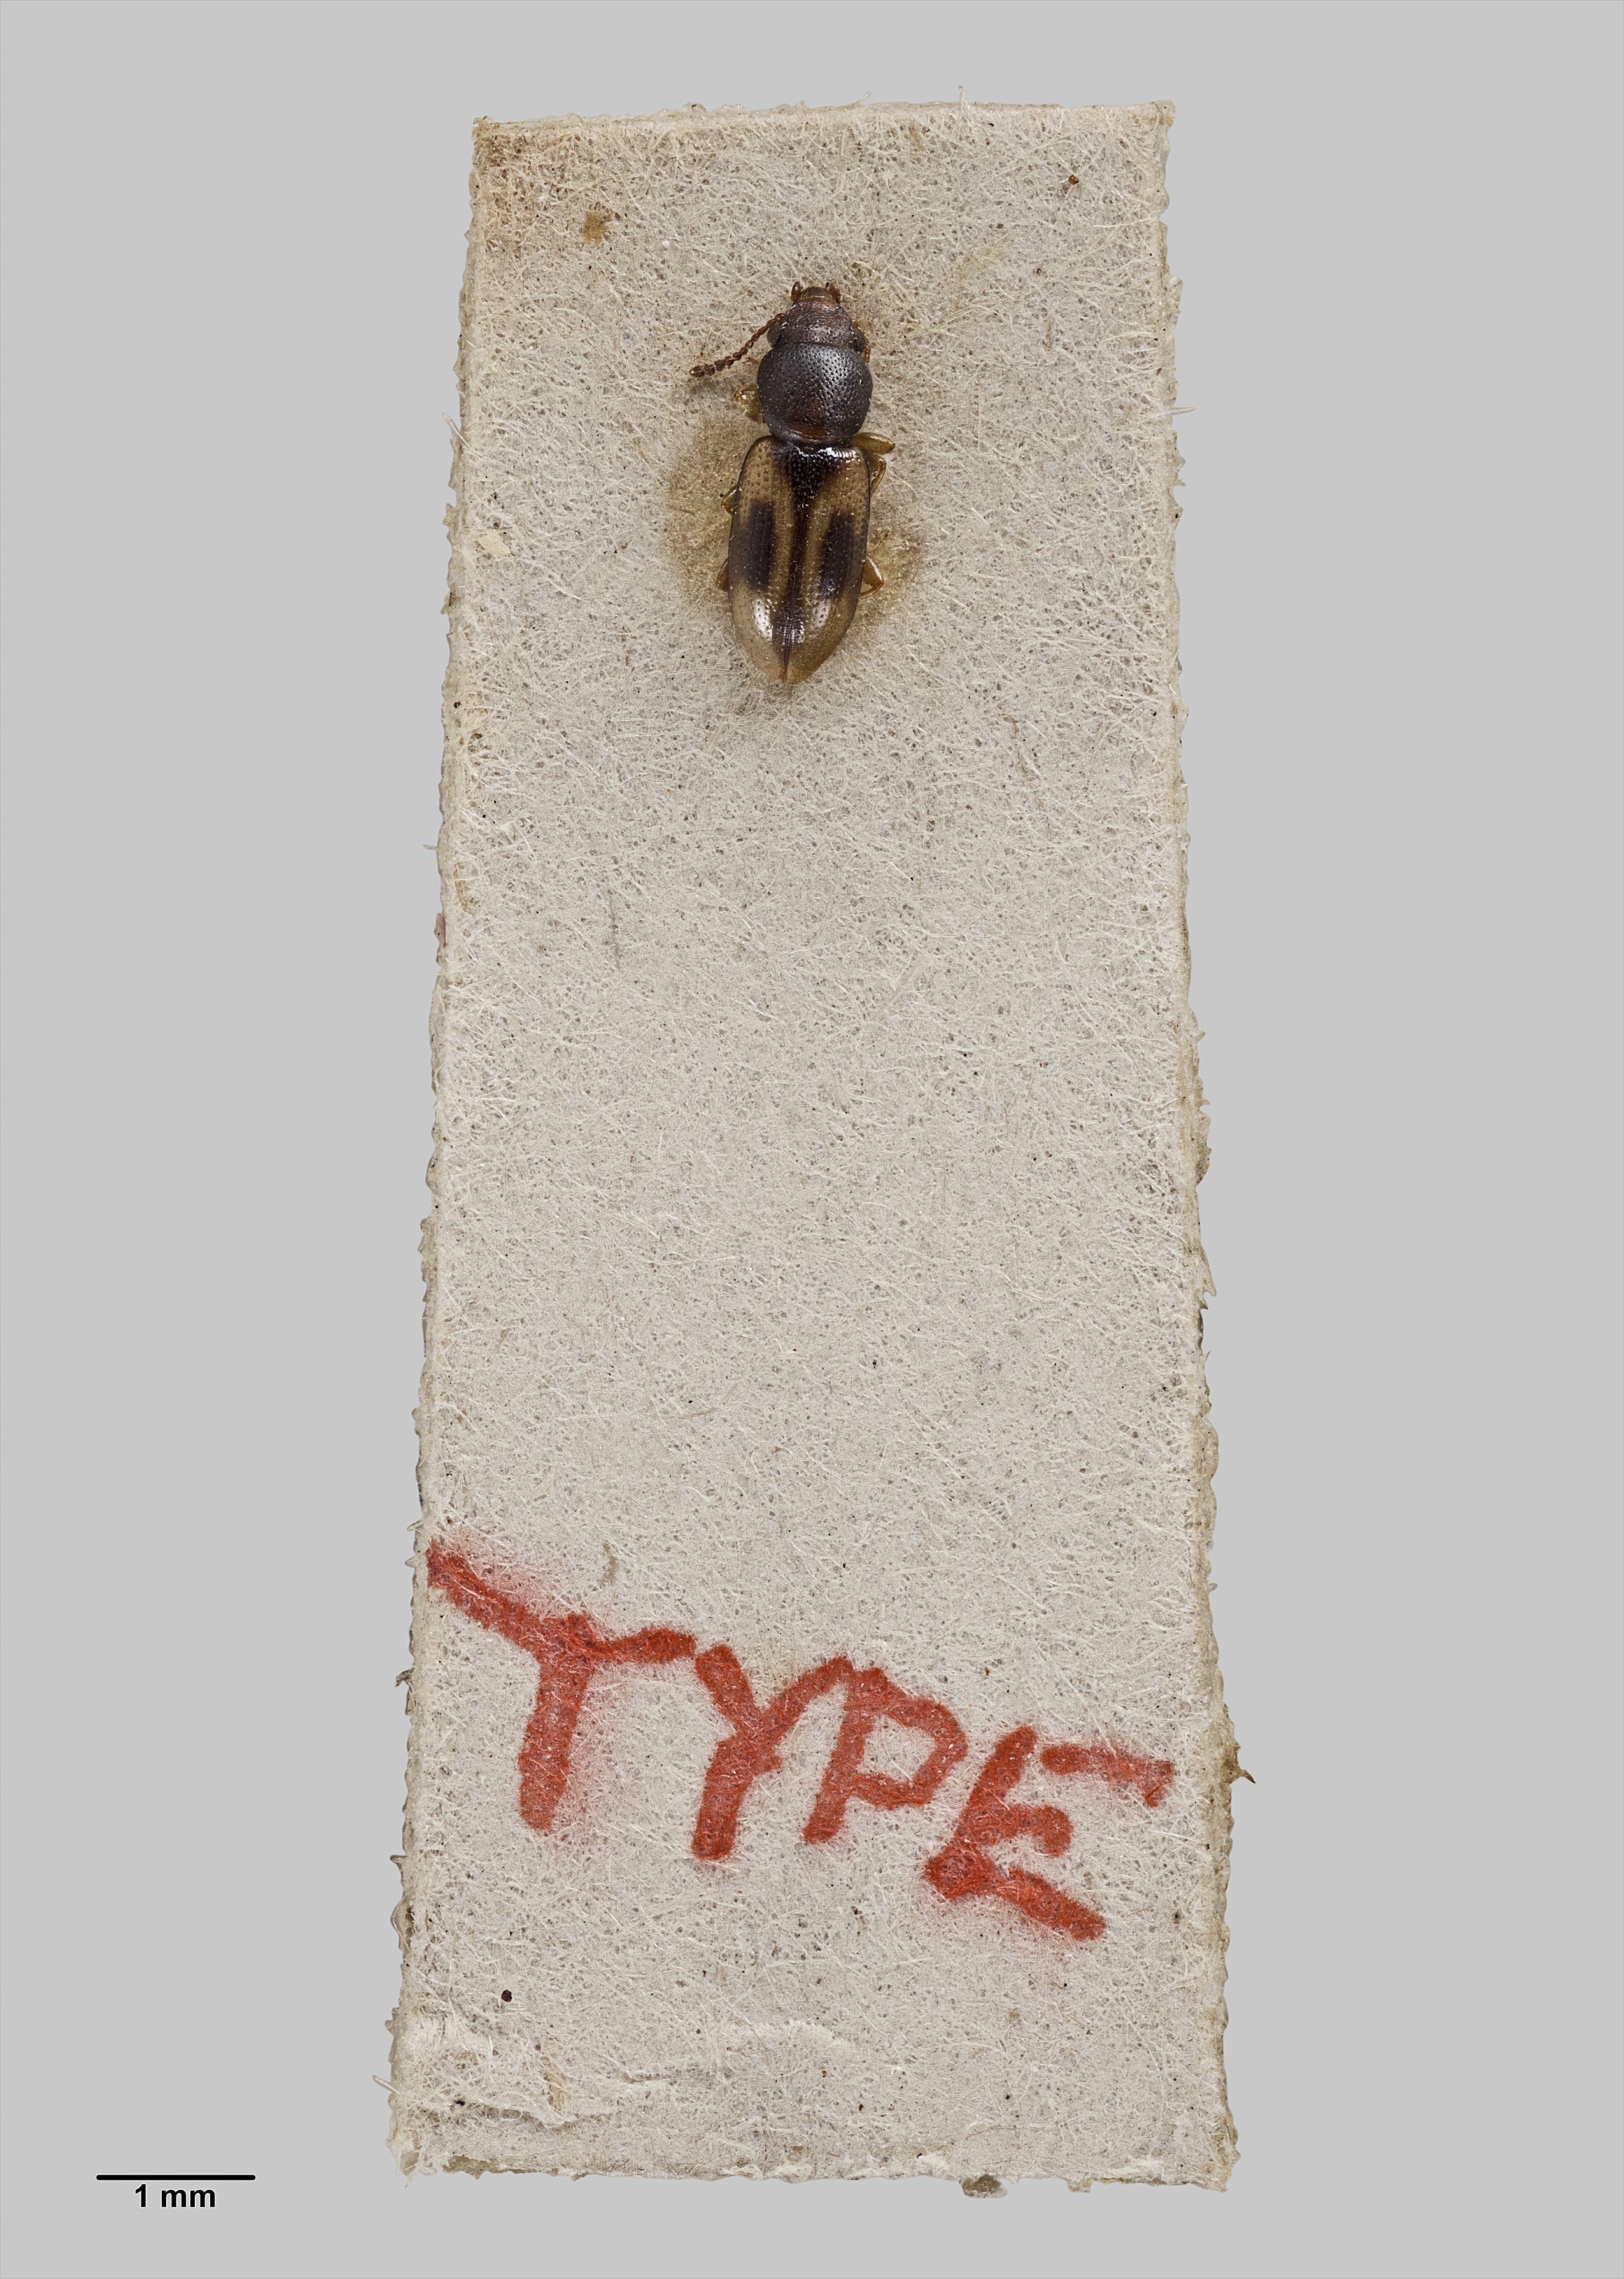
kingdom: Animalia
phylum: Arthropoda
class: Insecta
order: Coleoptera
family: Salpingidae
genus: Salpingus
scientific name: Salpingus lepidulus
